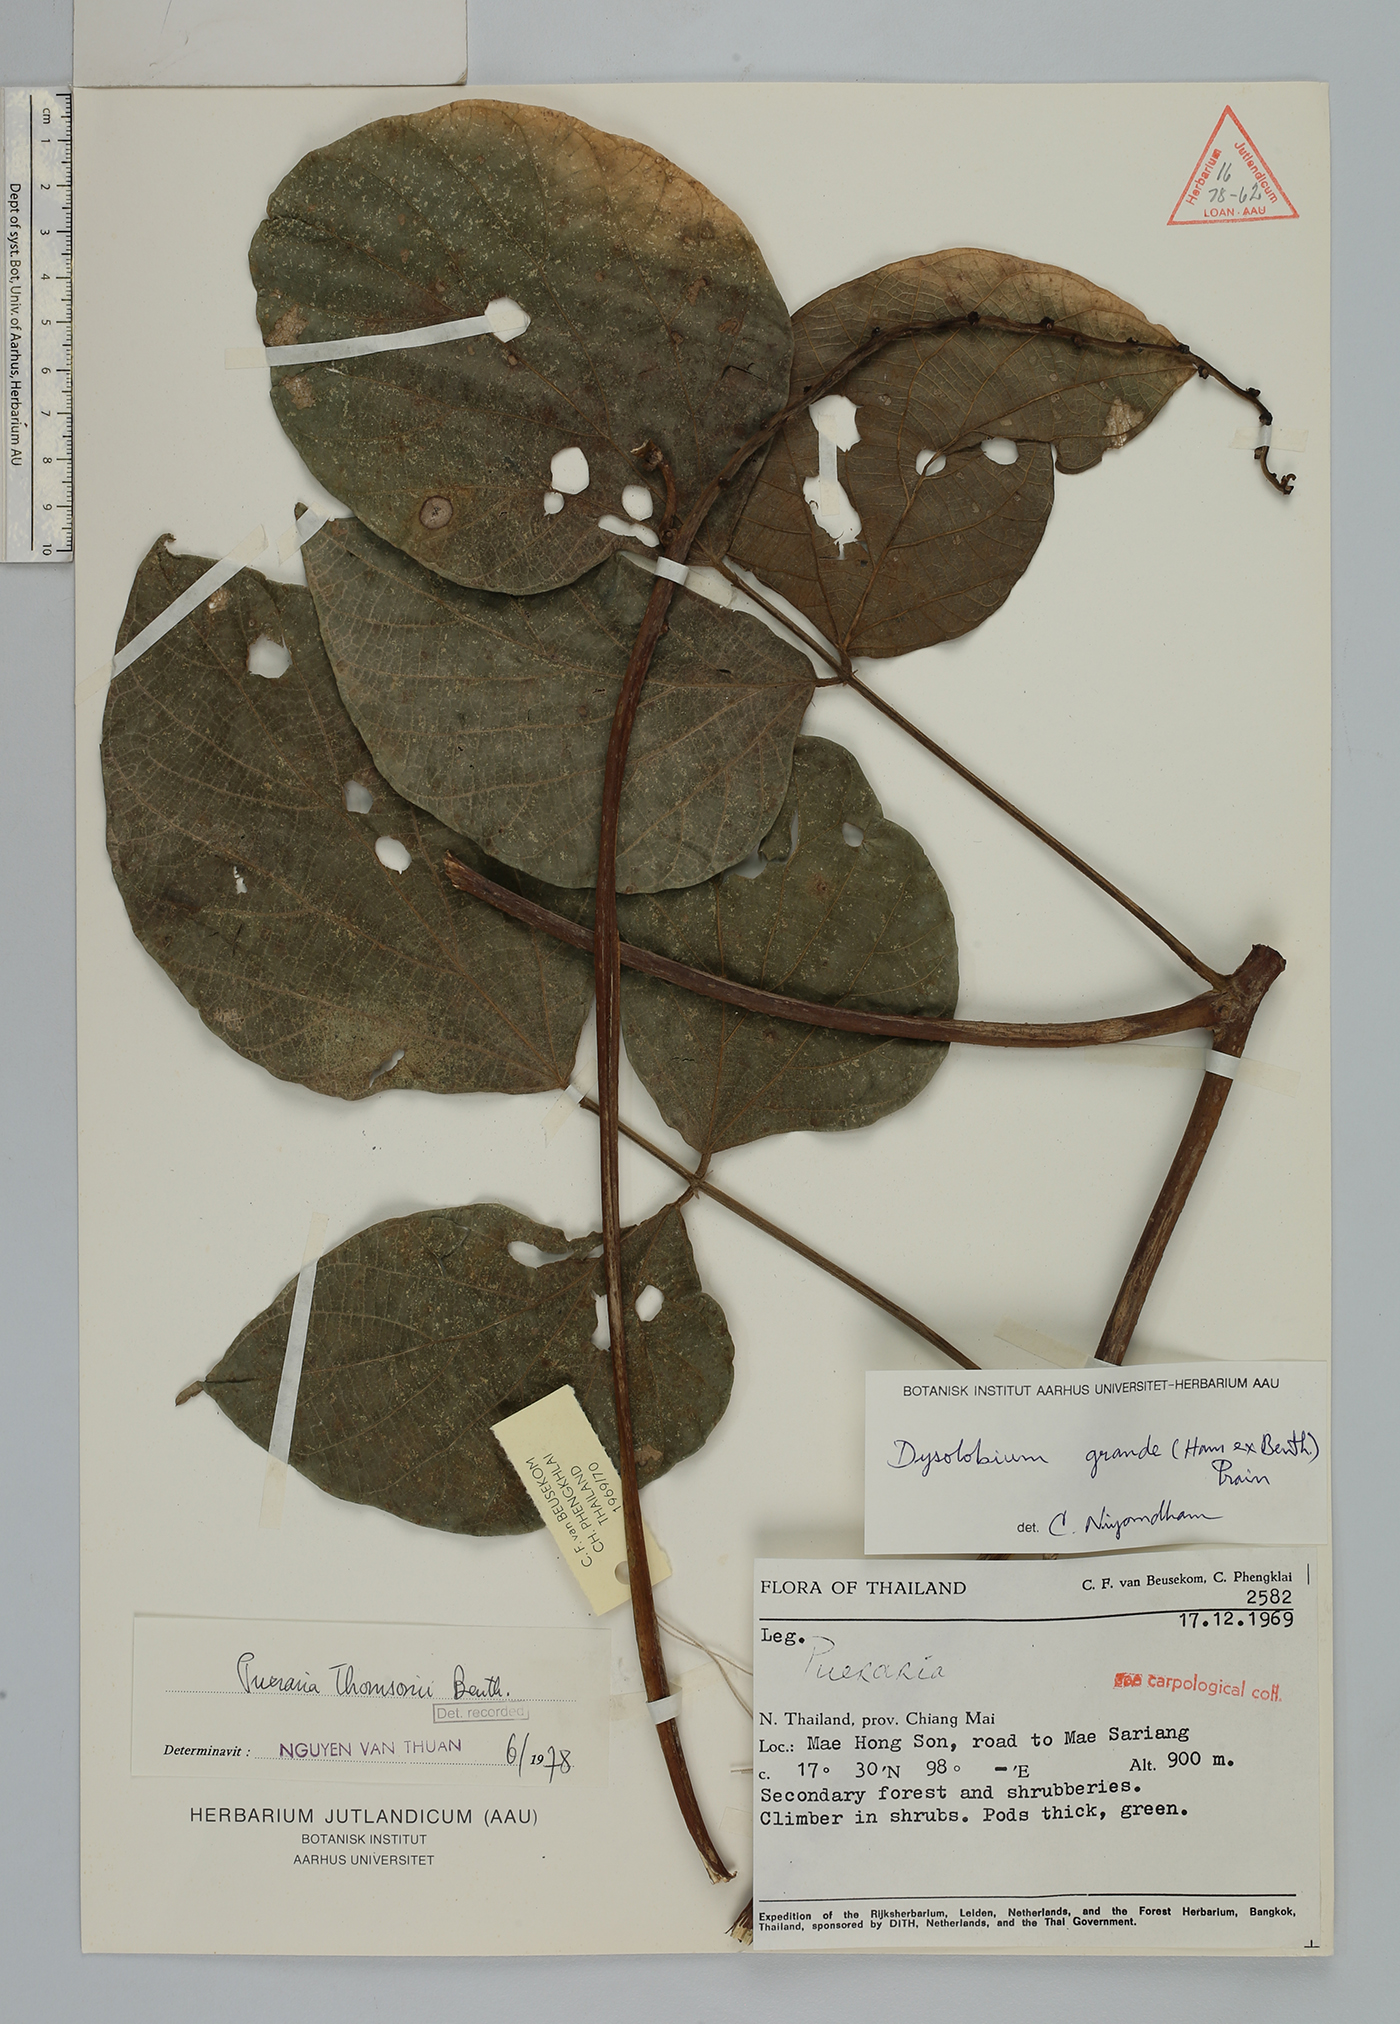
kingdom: Plantae
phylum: Tracheophyta
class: Magnoliopsida
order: Fabales
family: Fabaceae
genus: Dysolobium
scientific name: Dysolobium grande
